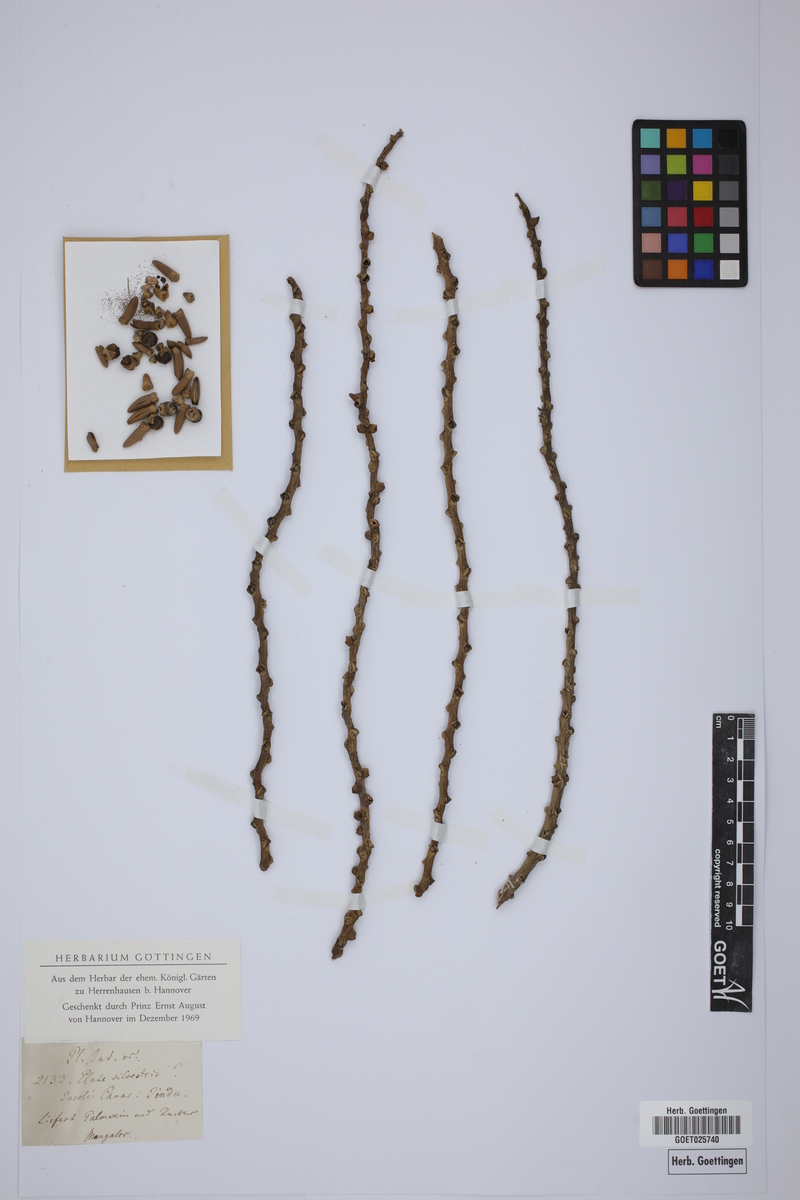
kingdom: Plantae
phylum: Tracheophyta
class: Liliopsida
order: Arecales
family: Arecaceae
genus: Phoenix
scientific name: Phoenix sylvestris
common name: Wild date palm
